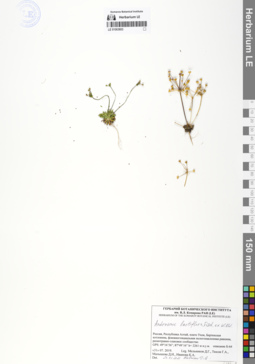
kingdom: Plantae
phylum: Tracheophyta
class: Magnoliopsida
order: Ericales
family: Primulaceae
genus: Androsace
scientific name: Androsace lactiflora
